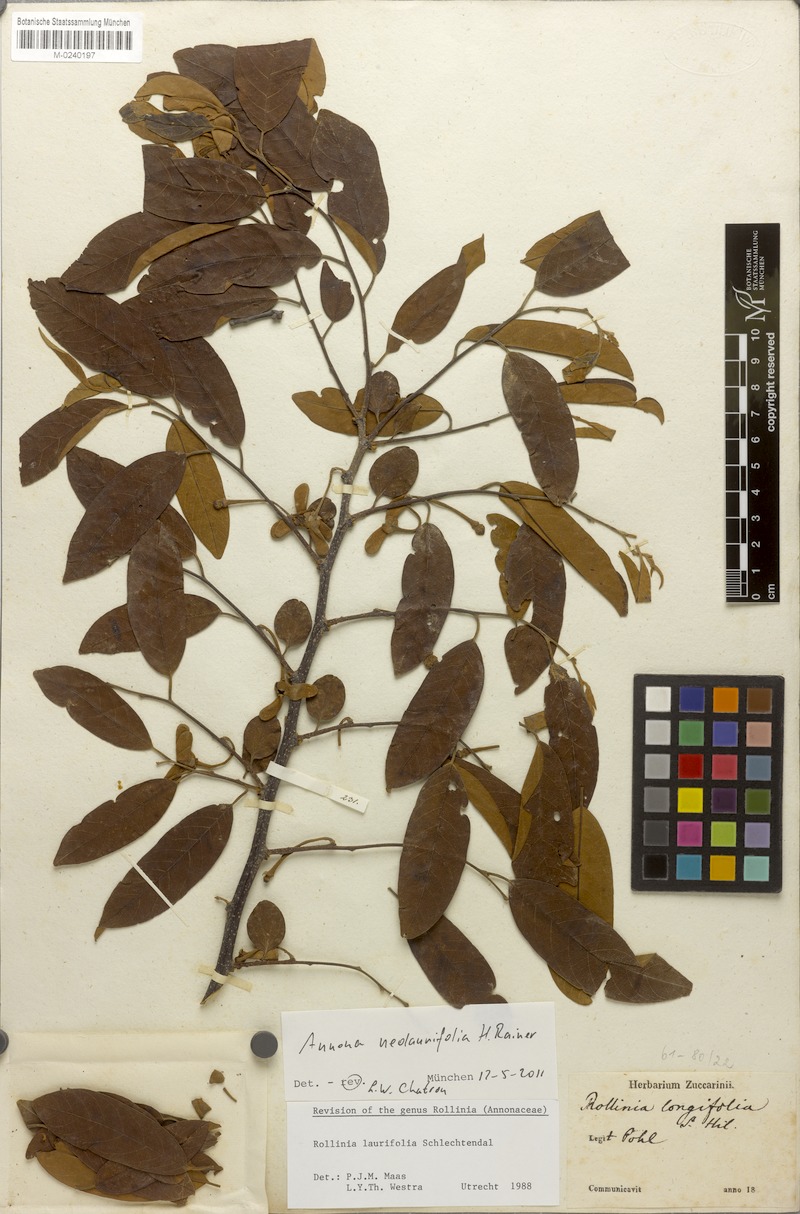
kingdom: Plantae
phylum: Tracheophyta
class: Magnoliopsida
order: Magnoliales
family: Annonaceae
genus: Annona
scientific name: Annona neolaurifolia
